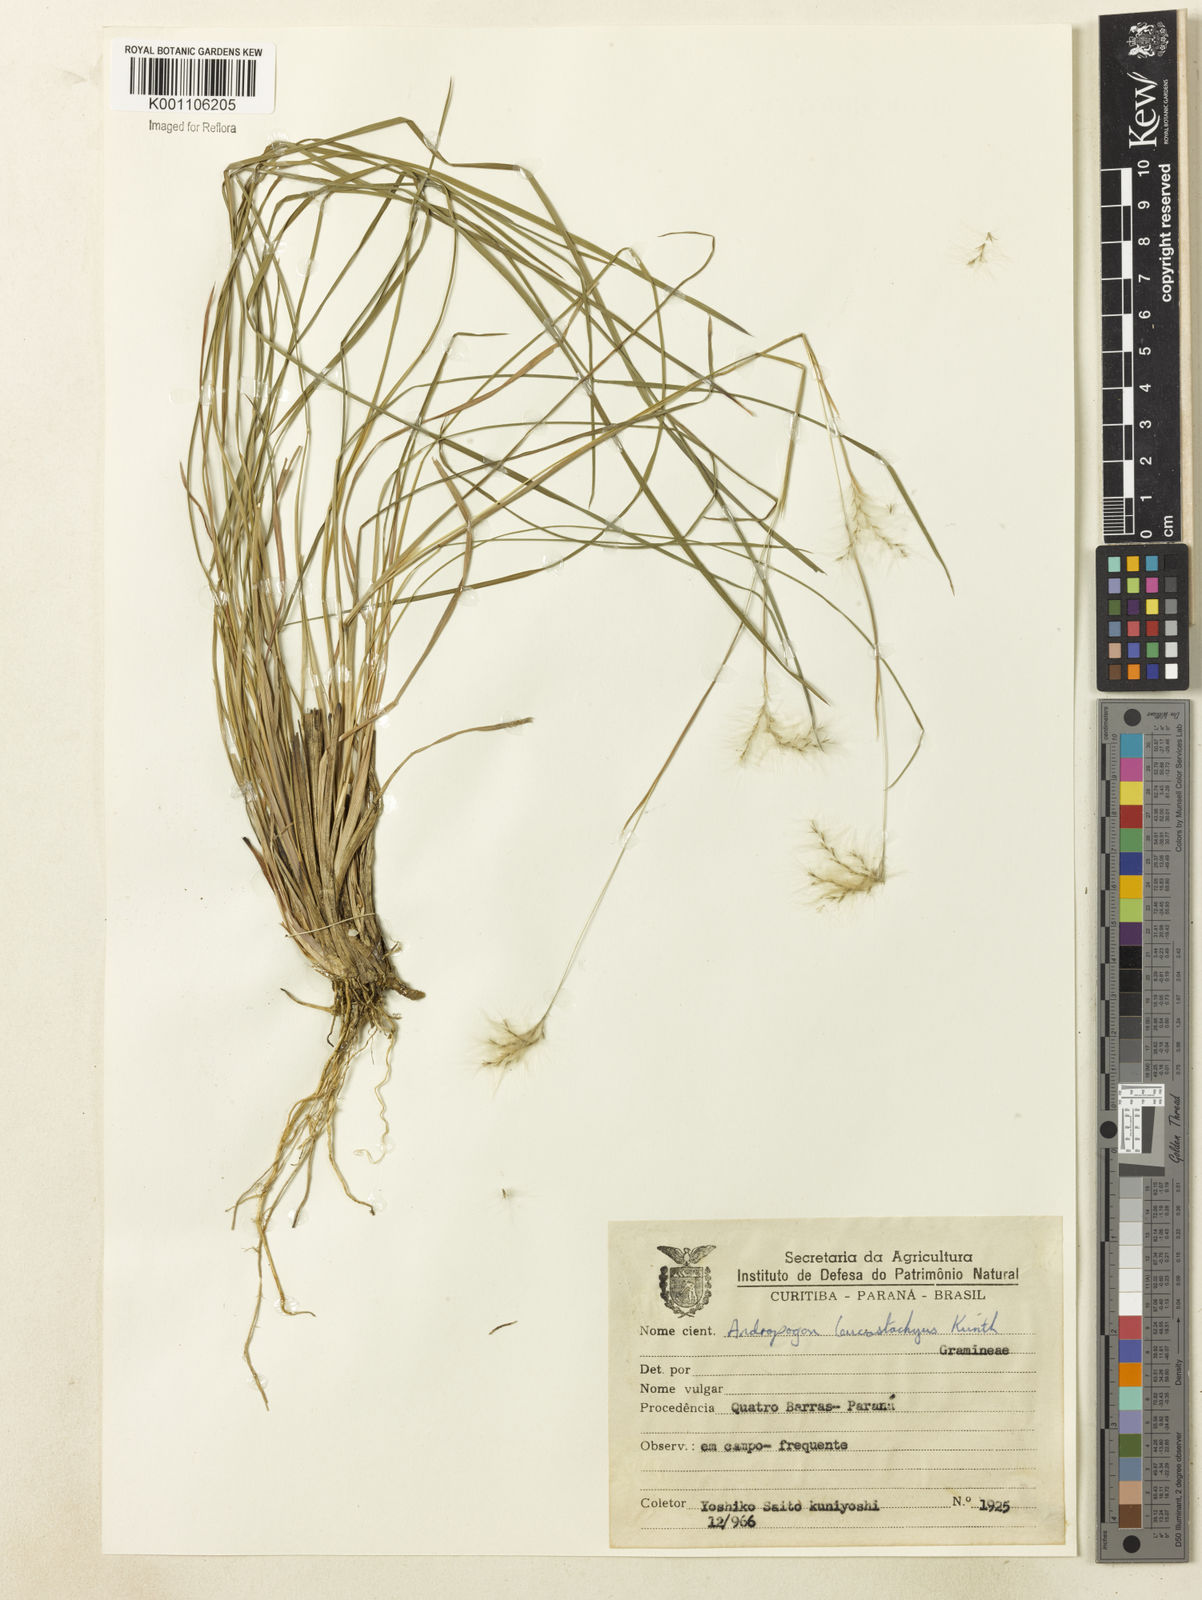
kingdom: Plantae
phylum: Tracheophyta
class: Liliopsida
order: Poales
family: Poaceae
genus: Andropogon
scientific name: Andropogon leucostachyus
